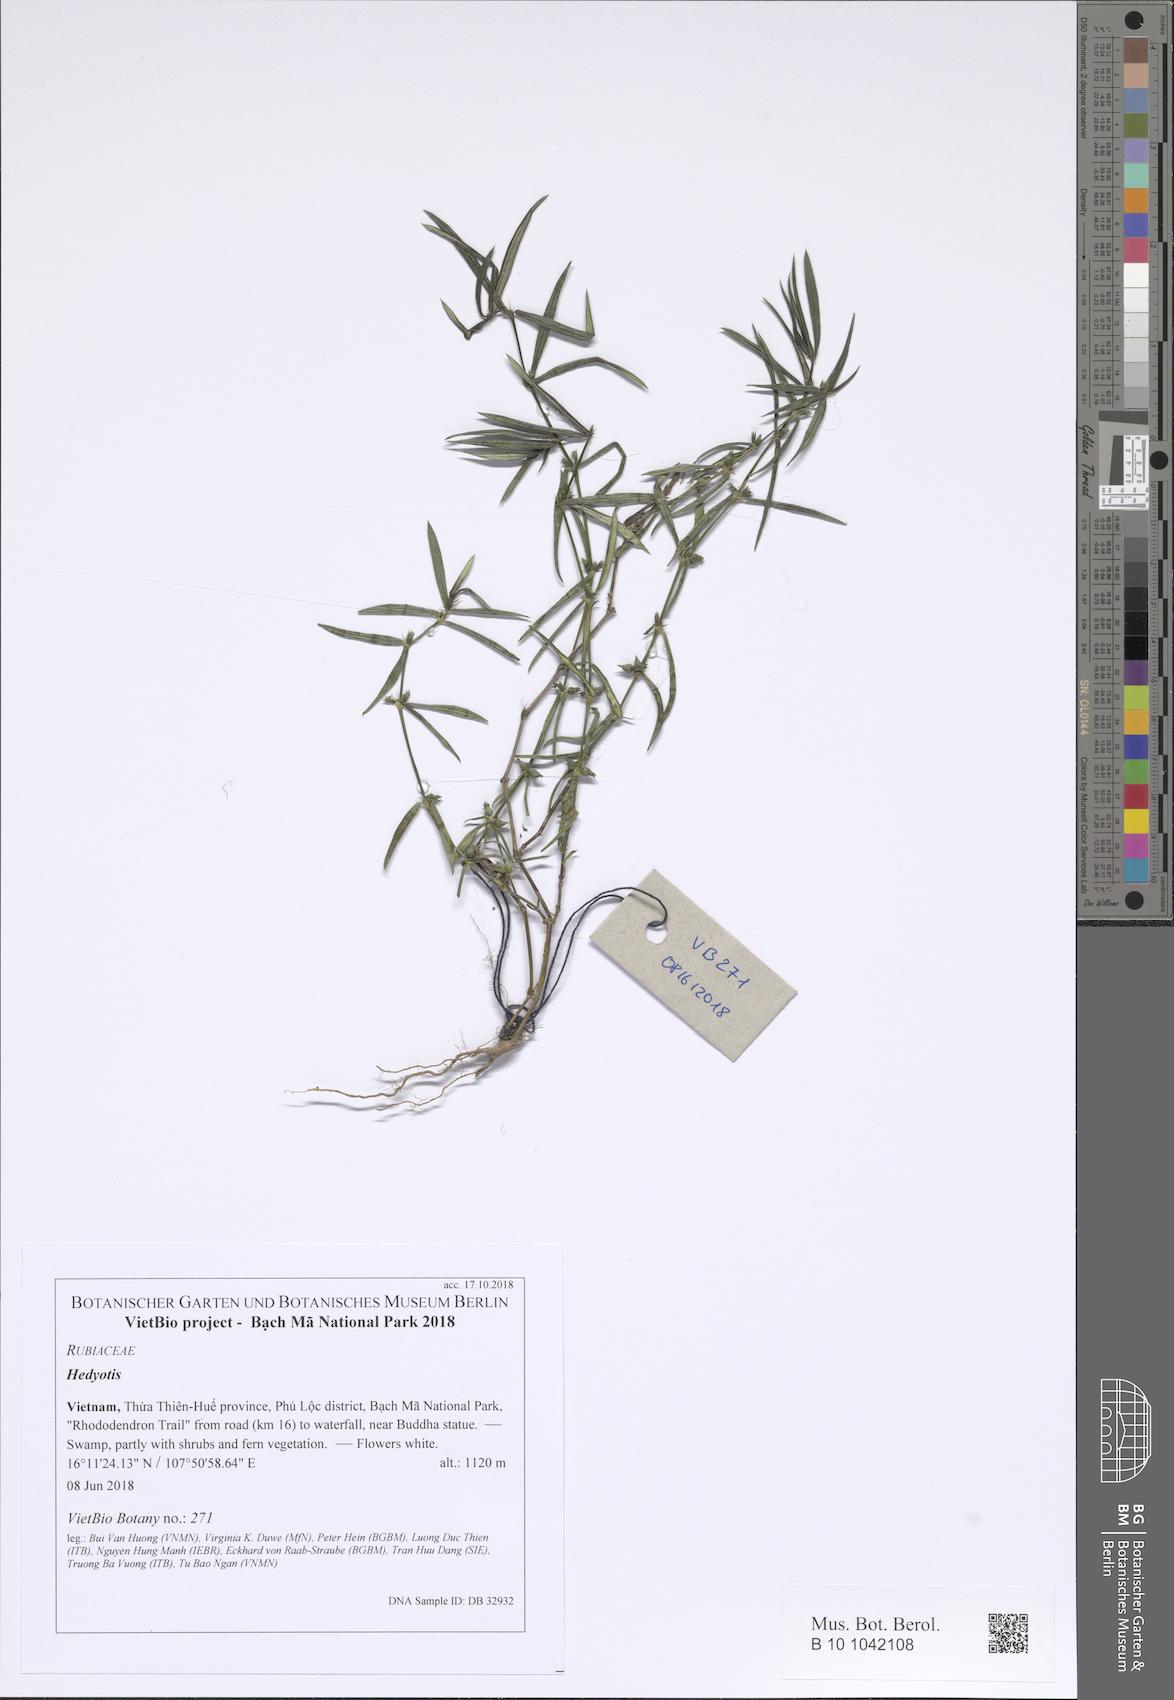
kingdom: Plantae
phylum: Tracheophyta
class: Magnoliopsida
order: Gentianales
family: Rubiaceae
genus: Hedyotis
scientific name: Hedyotis
